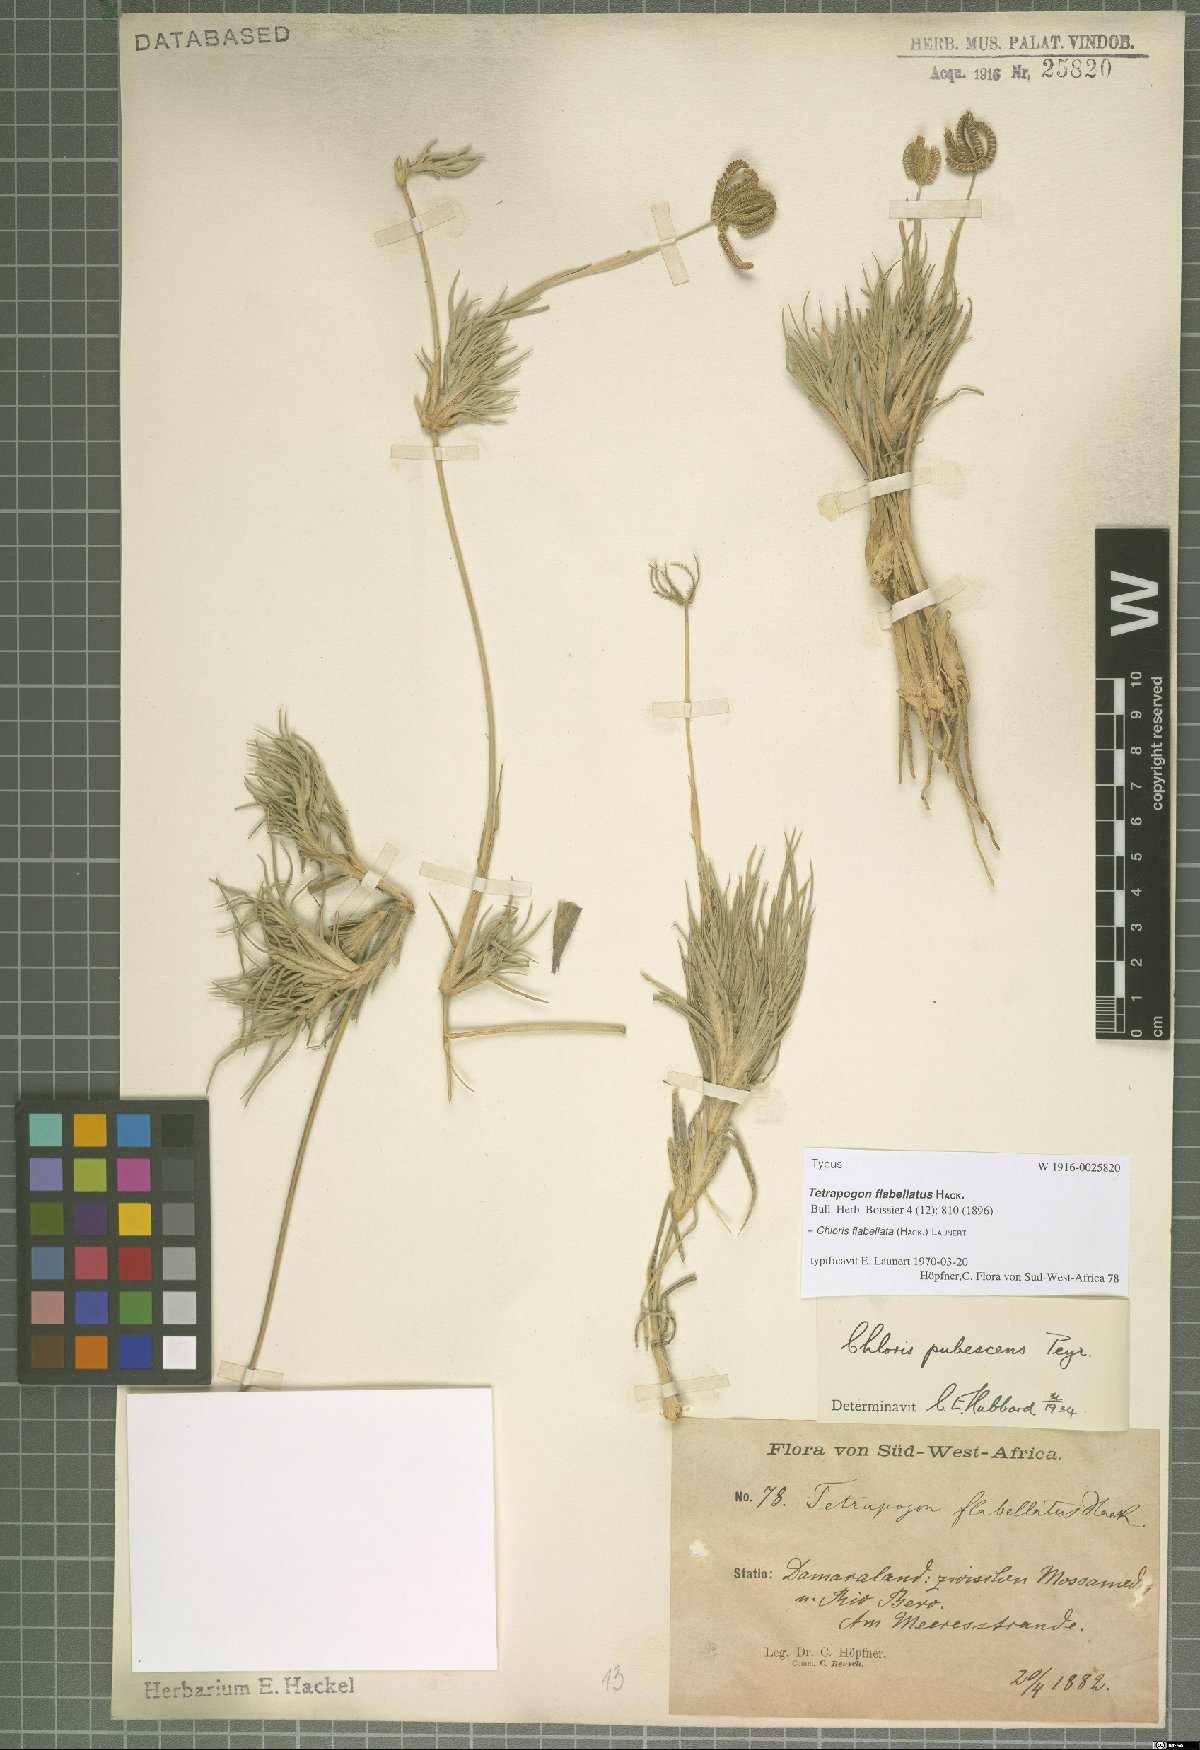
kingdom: Plantae
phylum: Tracheophyta
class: Liliopsida
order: Poales
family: Poaceae
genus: Chloris
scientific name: Chloris flabellata
